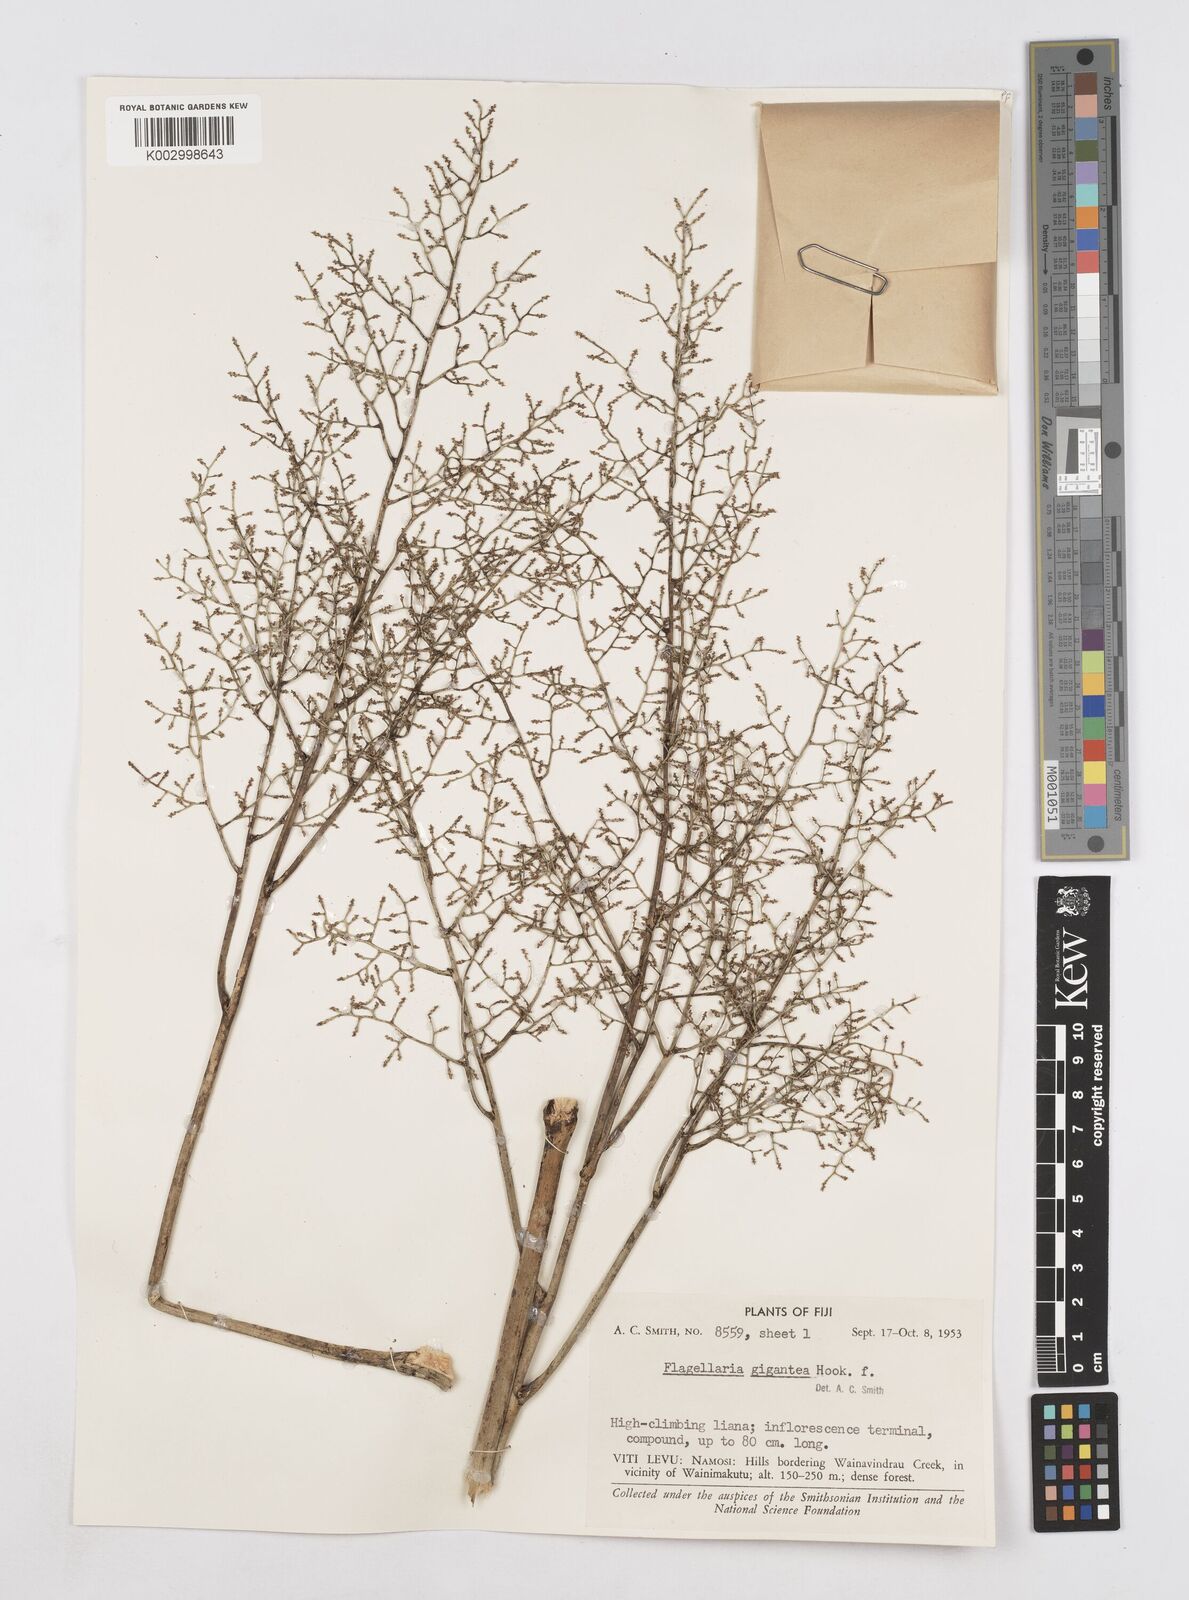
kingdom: Plantae
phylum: Tracheophyta
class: Liliopsida
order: Poales
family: Flagellariaceae
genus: Flagellaria
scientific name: Flagellaria gigantea
